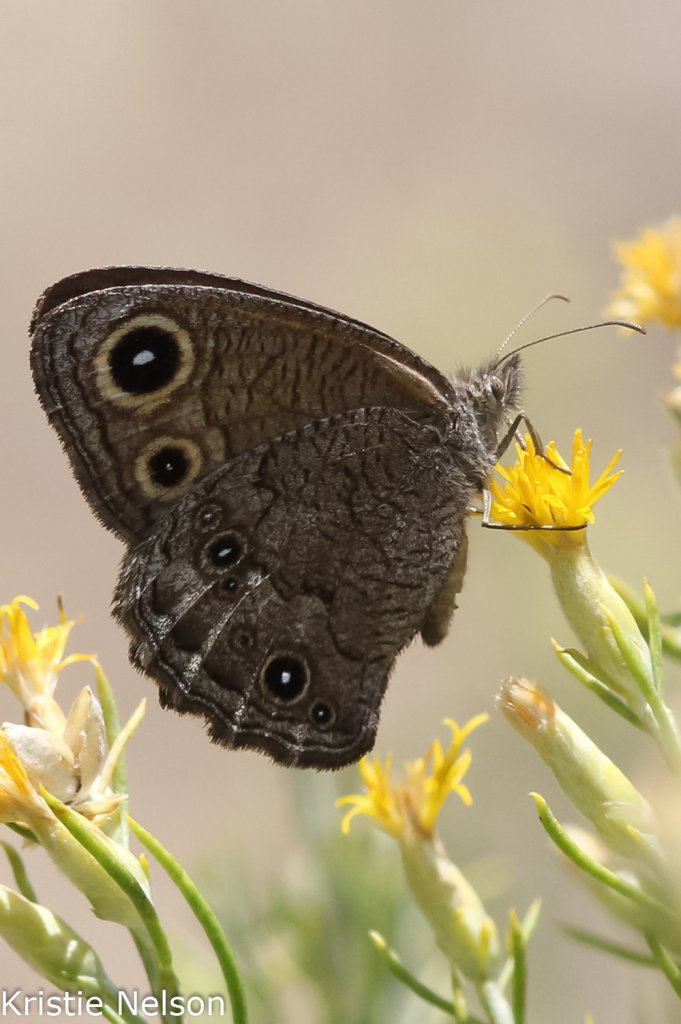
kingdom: Animalia
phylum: Arthropoda
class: Insecta
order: Lepidoptera
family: Nymphalidae
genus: Cercyonis
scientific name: Cercyonis sthenele
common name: Great Basin Wood-Nymph
